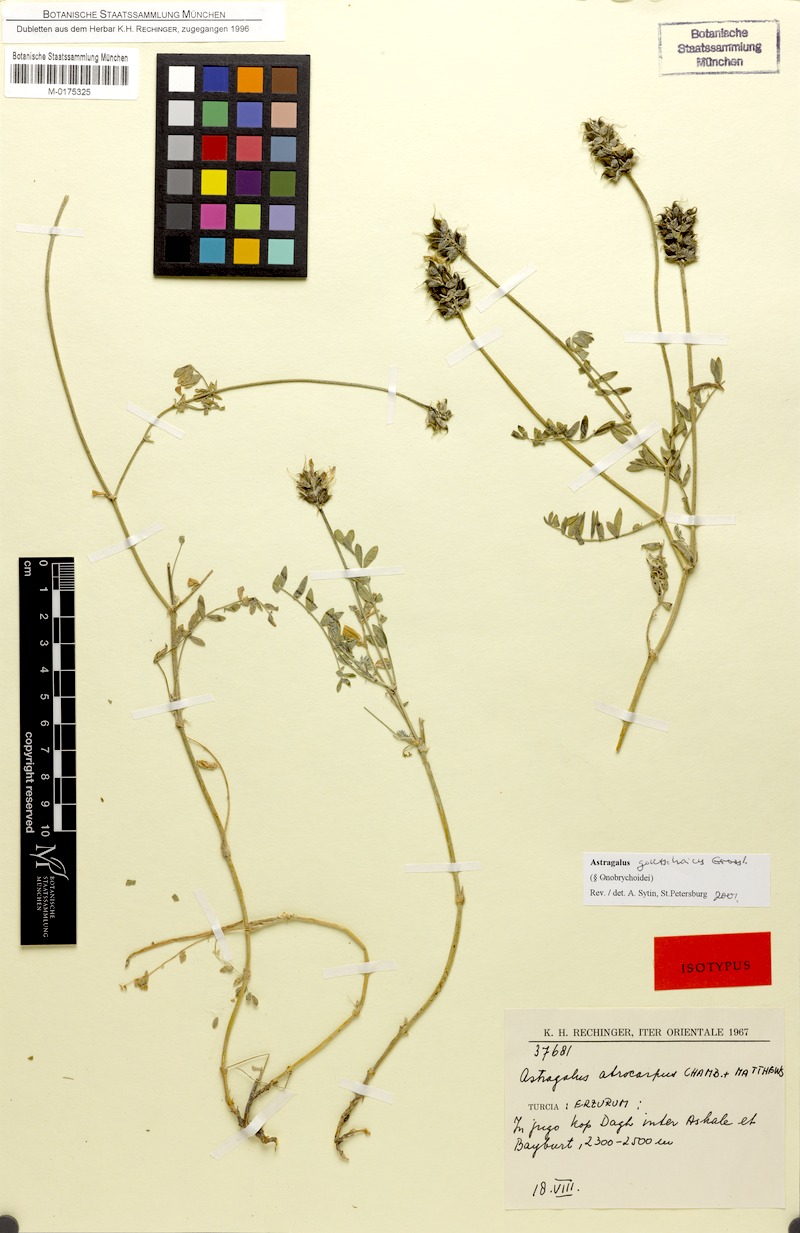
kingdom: Plantae
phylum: Tracheophyta
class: Magnoliopsida
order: Fabales
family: Fabaceae
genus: Astragalus
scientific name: Astragalus onobrychis
